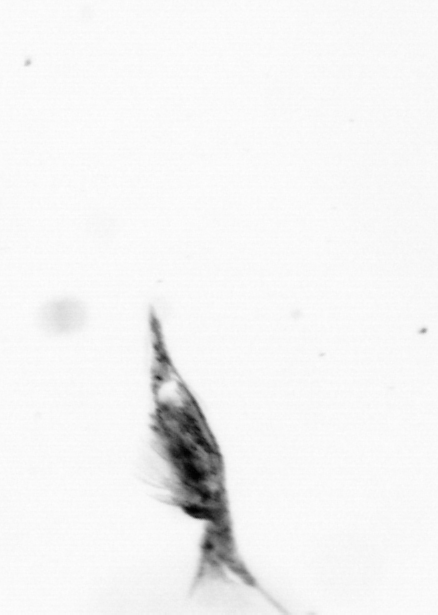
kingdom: Animalia
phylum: Arthropoda
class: Copepoda
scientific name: Copepoda
